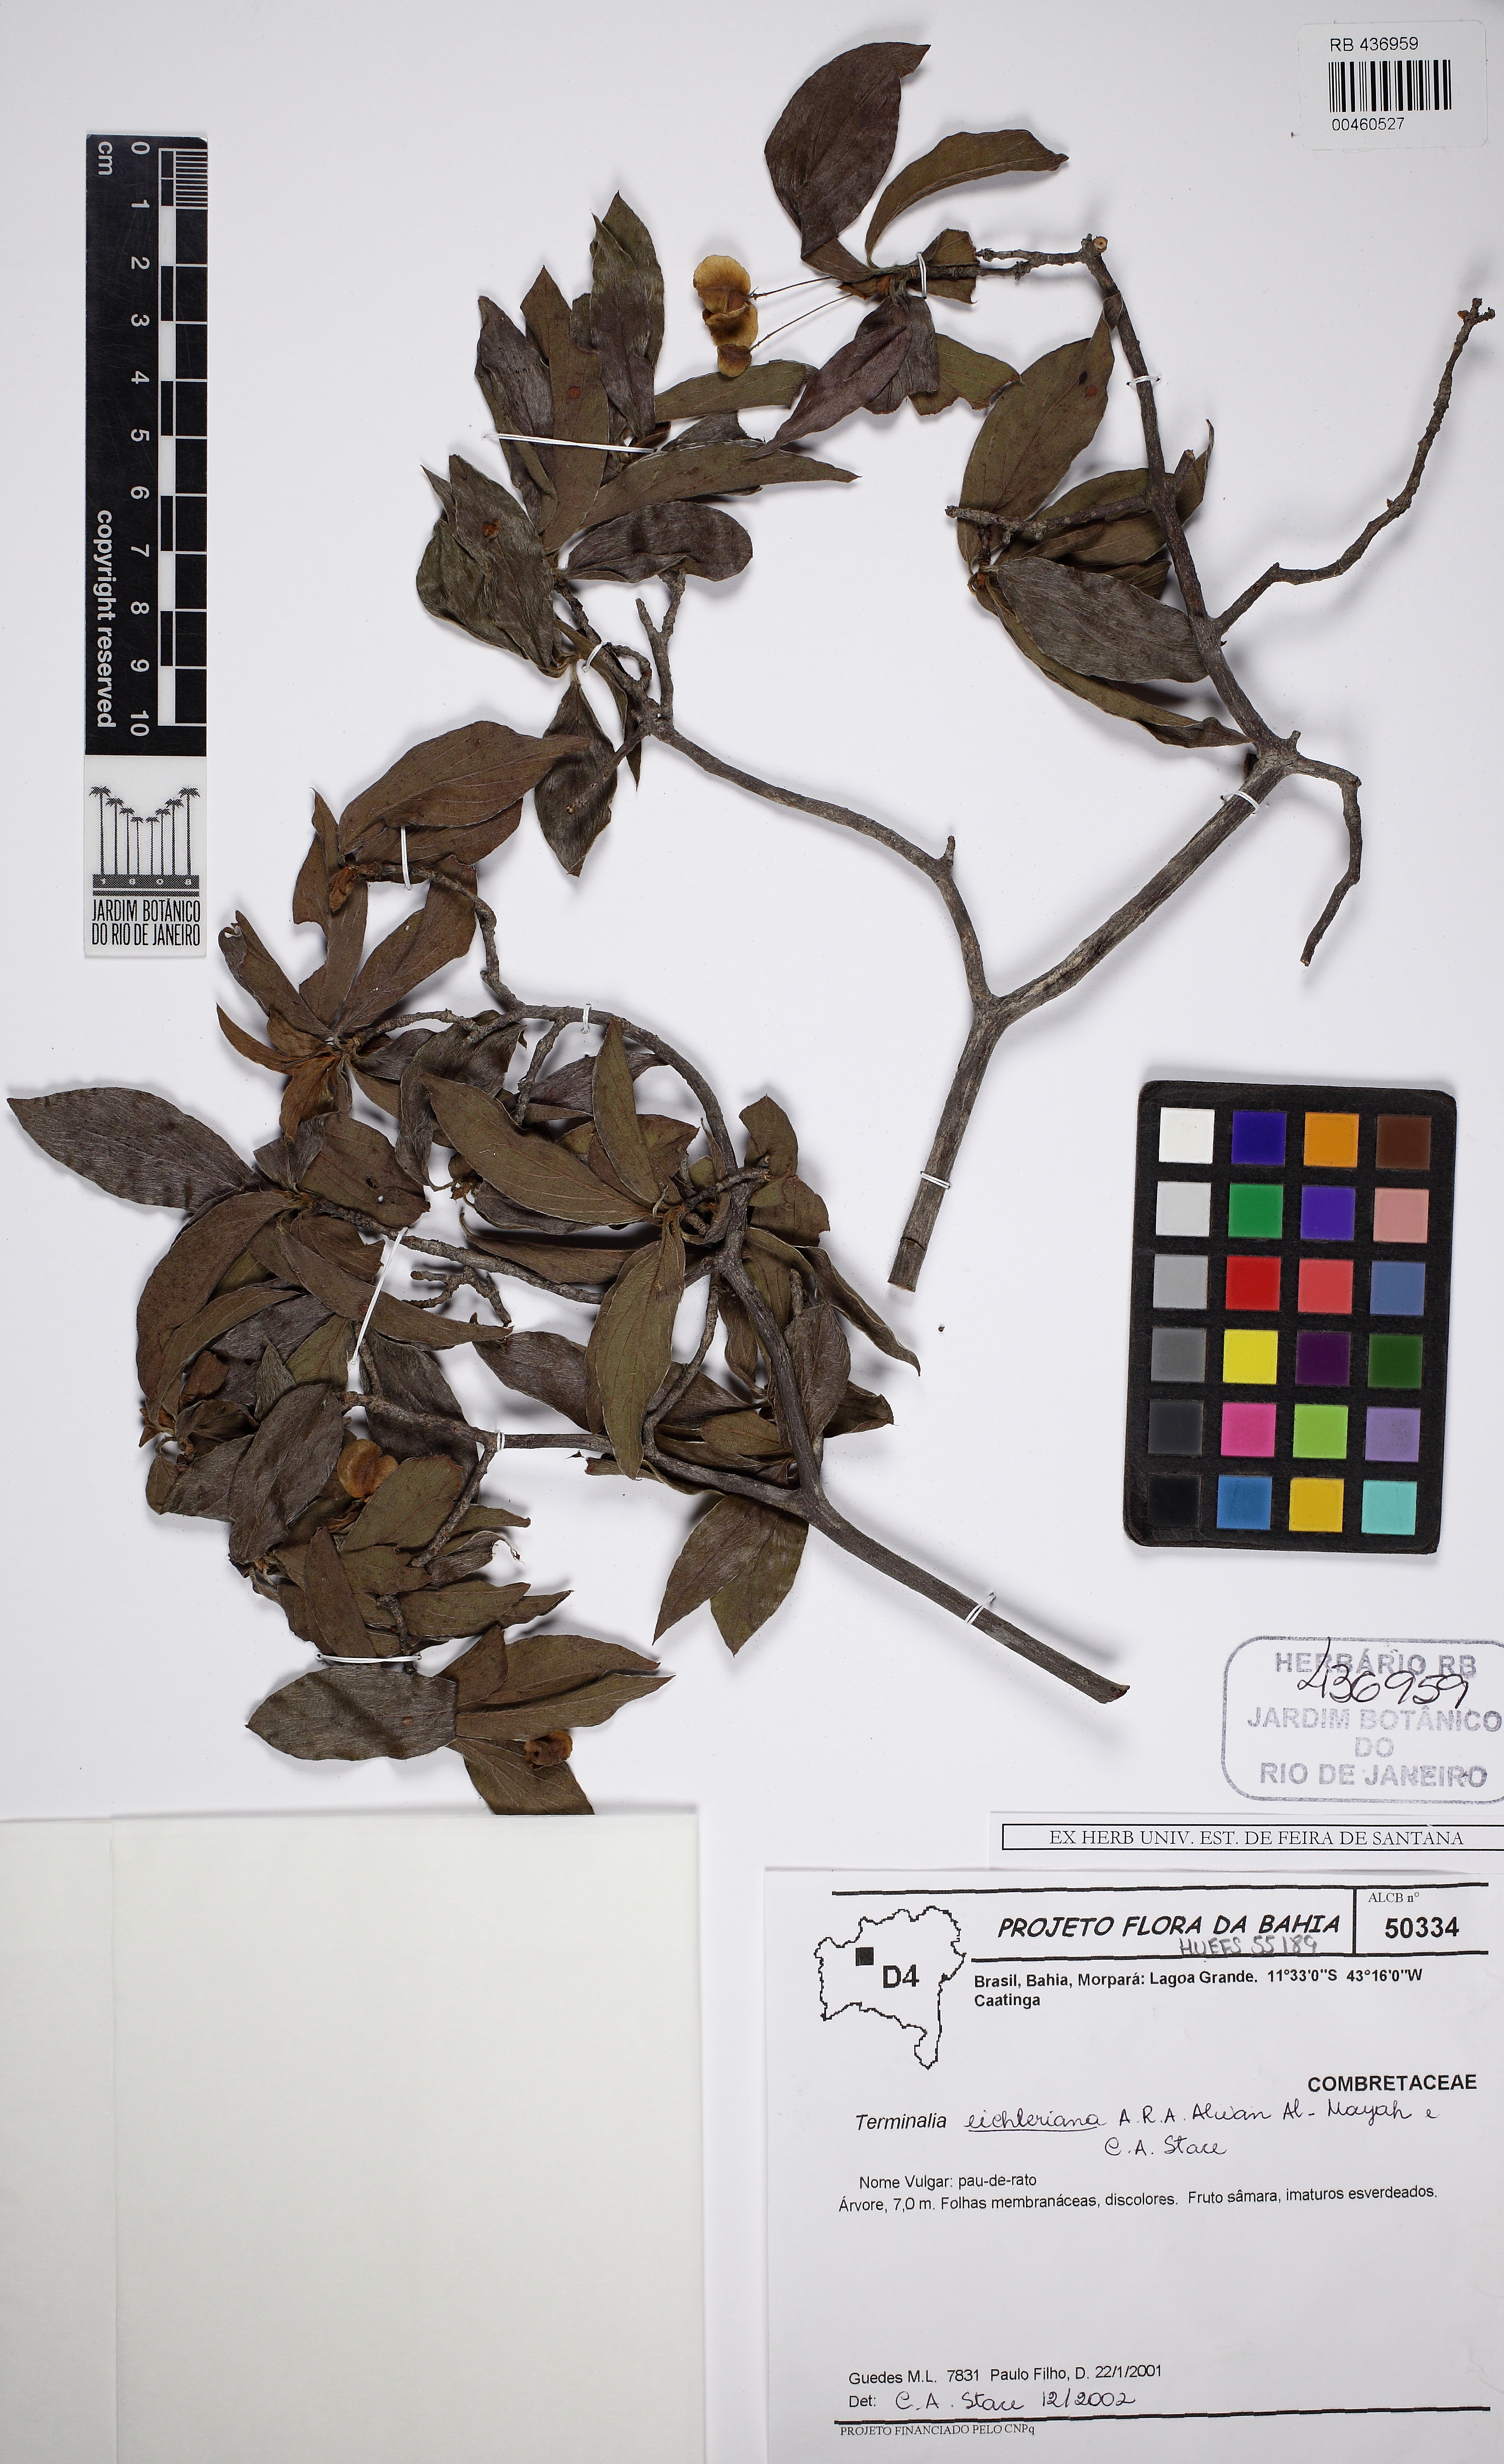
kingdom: Plantae
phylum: Tracheophyta
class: Magnoliopsida
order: Myrtales
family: Combretaceae
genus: Terminalia
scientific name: Terminalia eichleriana
